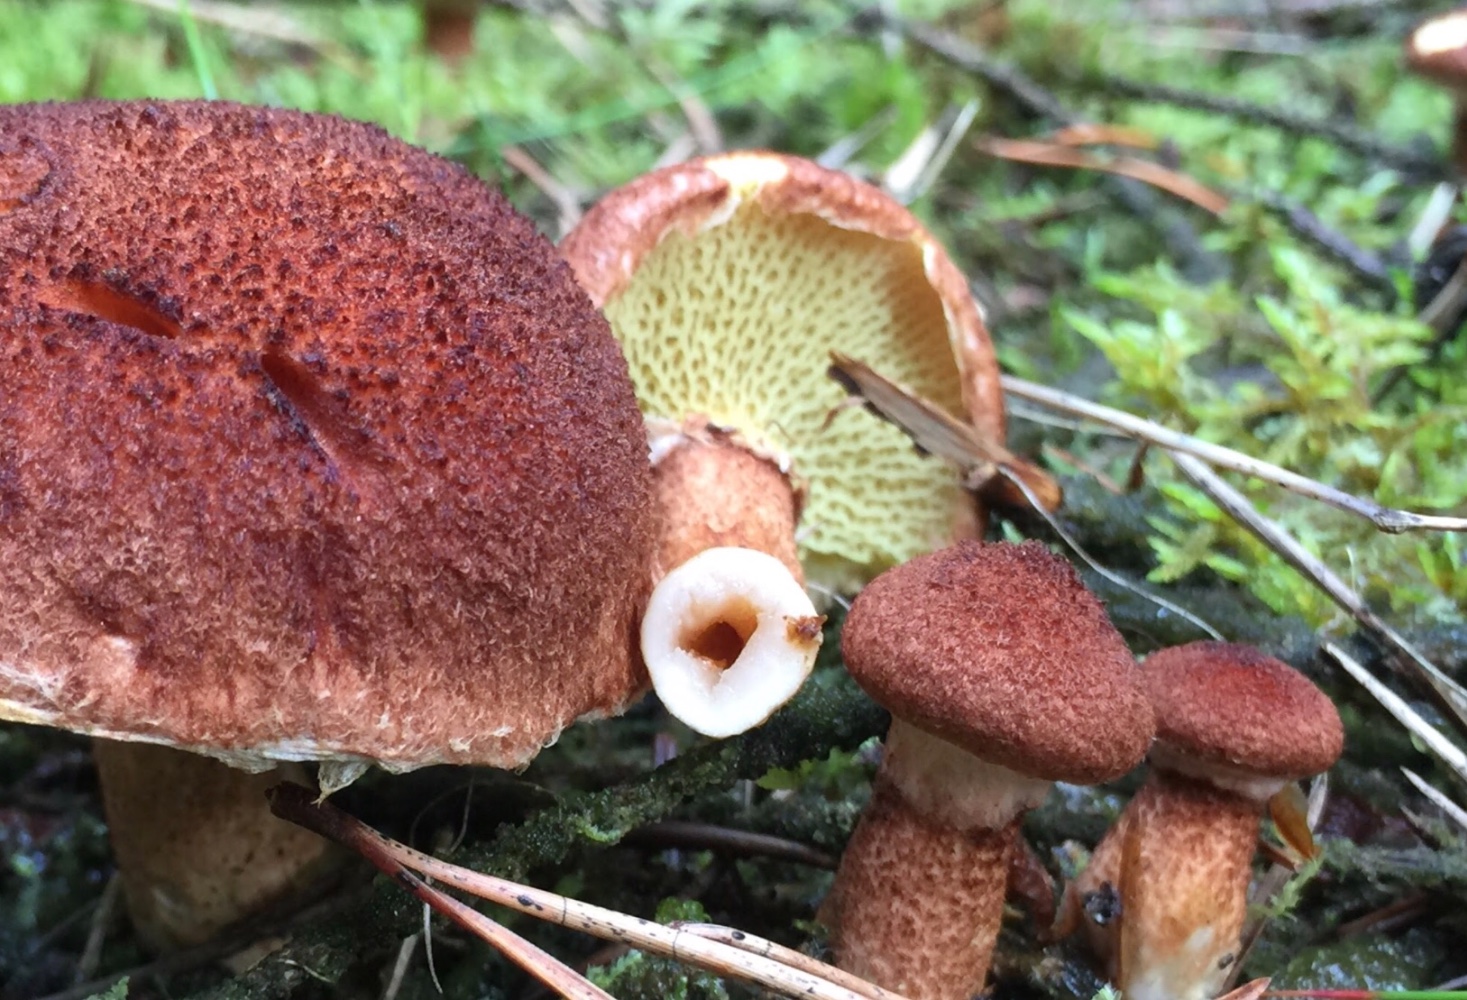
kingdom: Fungi
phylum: Basidiomycota
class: Agaricomycetes
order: Boletales
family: Suillaceae
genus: Suillus
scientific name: Suillus cavipes
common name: hulstokket slimrørhat
